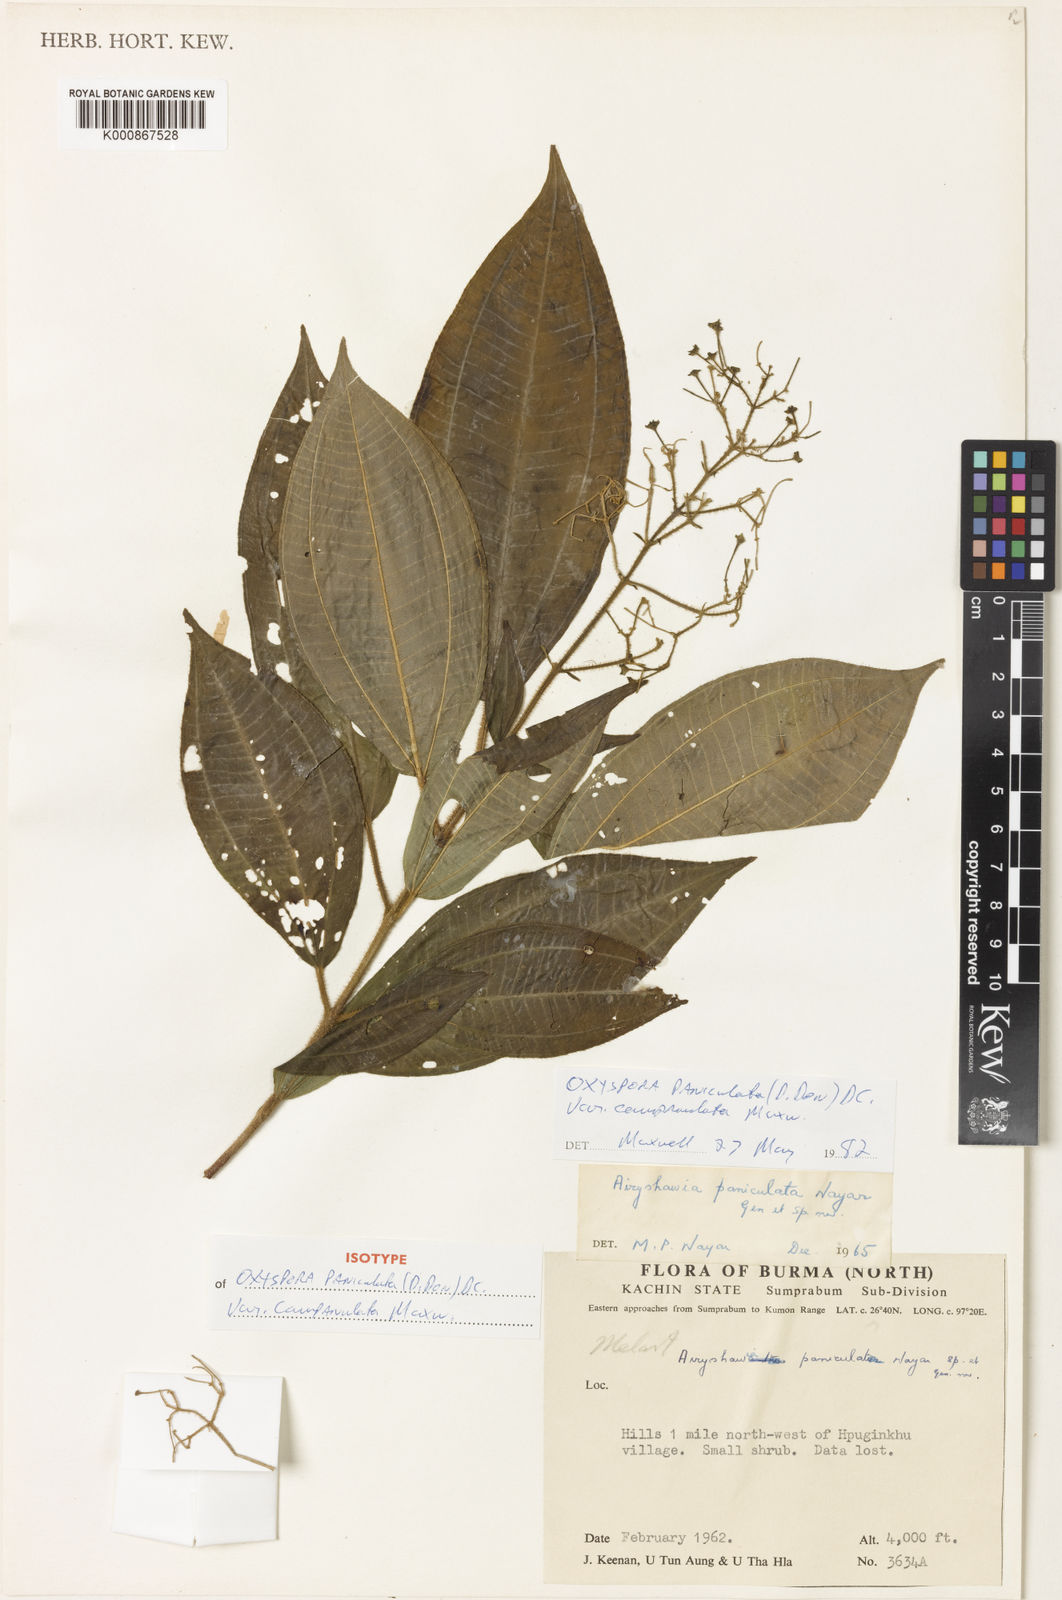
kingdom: Plantae
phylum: Tracheophyta
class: Magnoliopsida
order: Myrtales
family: Melastomataceae
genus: Oxyspora
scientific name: Oxyspora paniculata
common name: Bristletips
